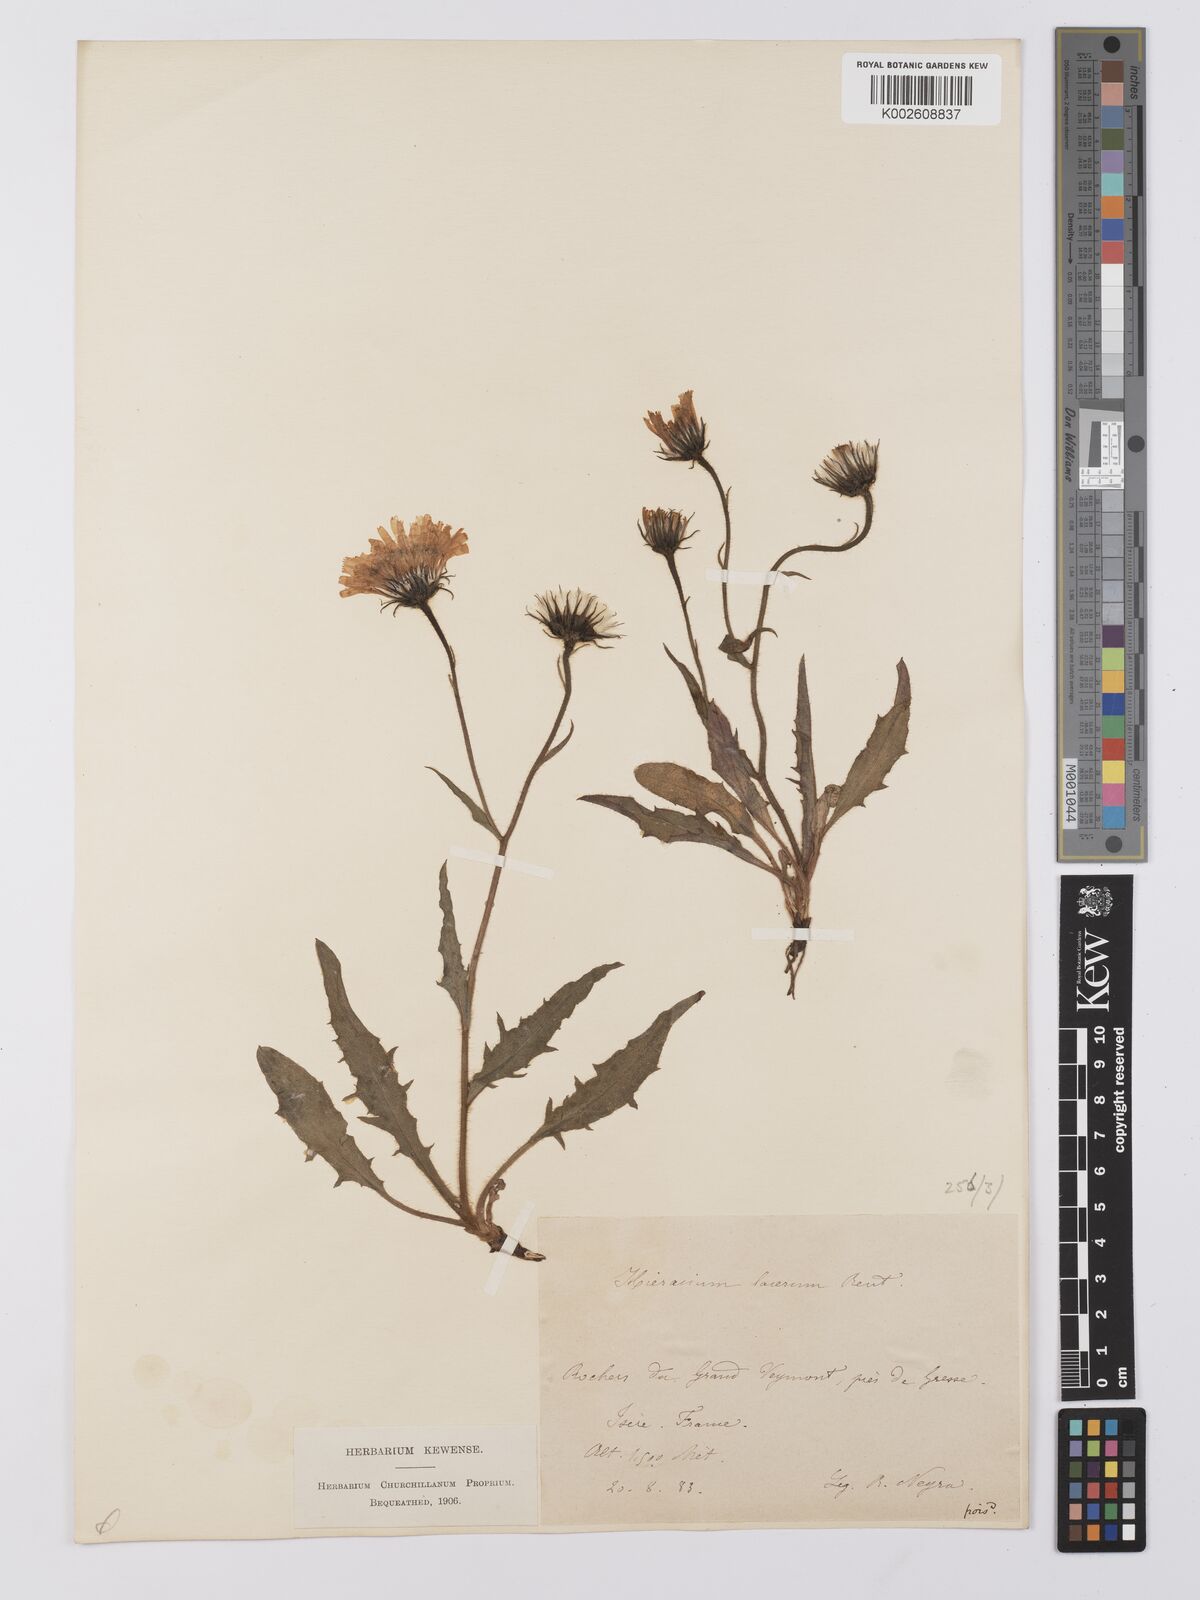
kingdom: Plantae
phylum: Tracheophyta
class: Magnoliopsida
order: Asterales
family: Asteraceae
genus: Hieracium
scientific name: Hieracium cottetii
